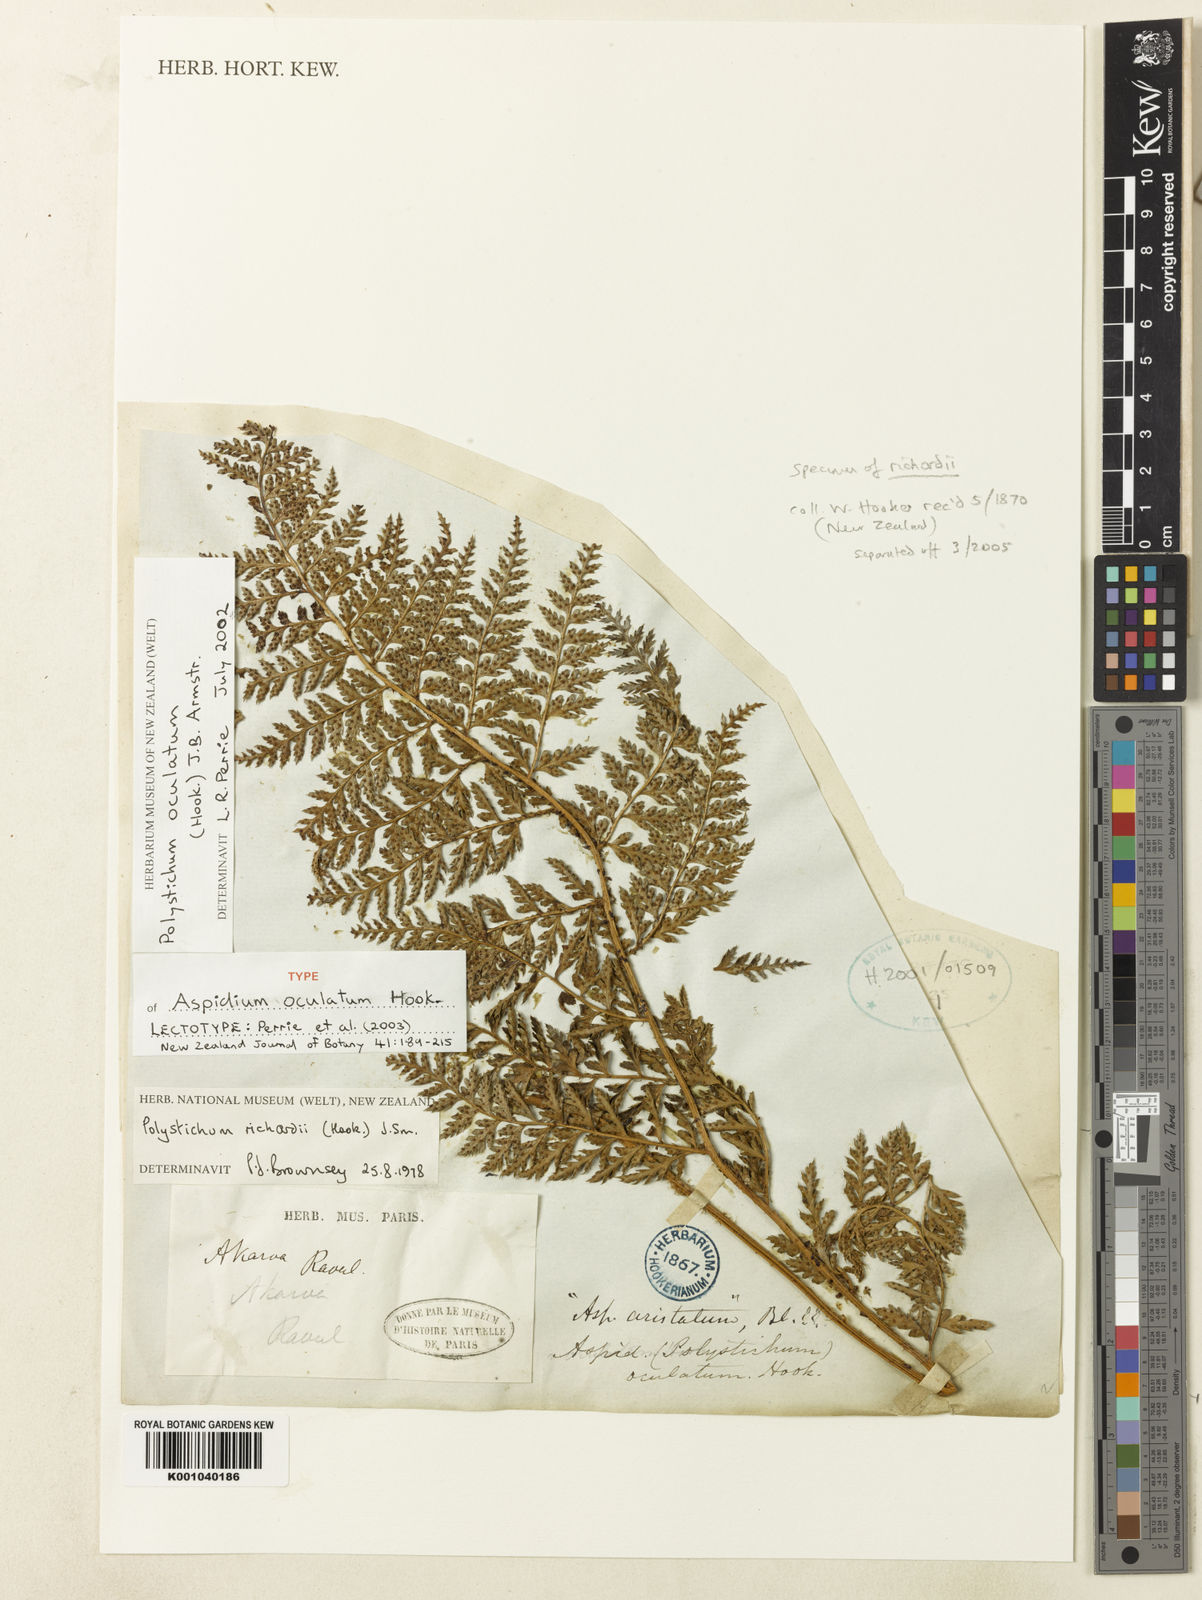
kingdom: Plantae
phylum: Tracheophyta
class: Polypodiopsida
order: Polypodiales
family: Dryopteridaceae
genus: Polystichum
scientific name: Polystichum oculatum
